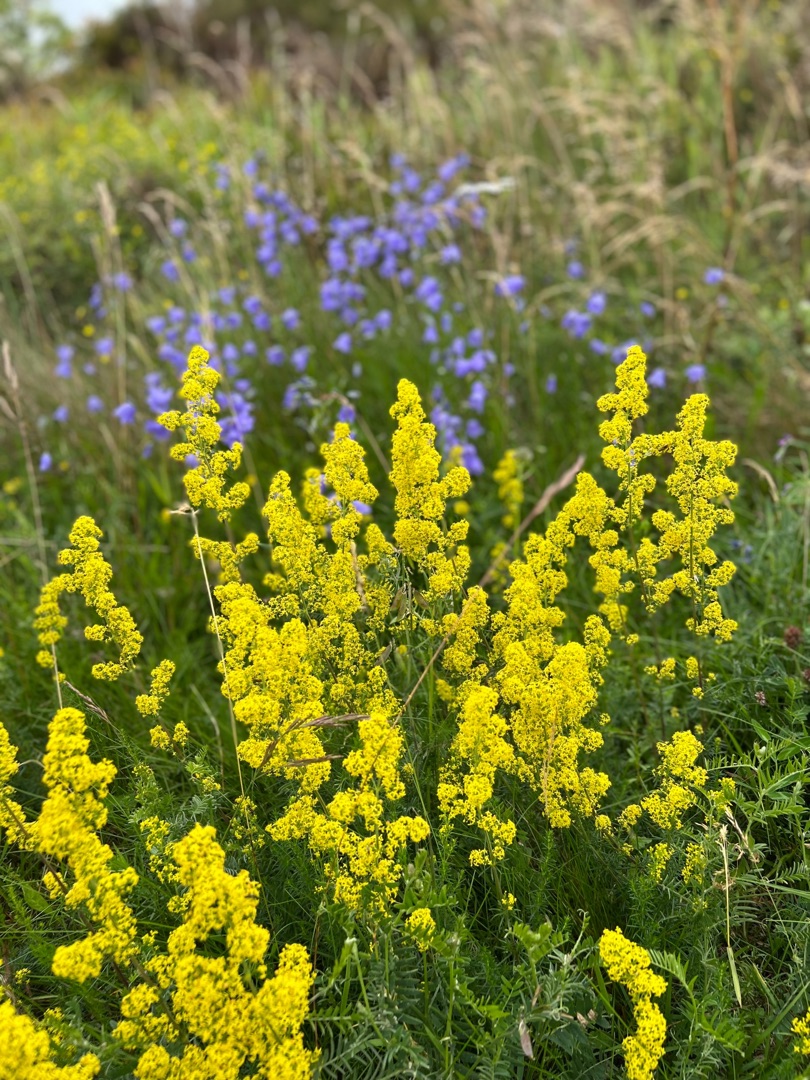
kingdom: Plantae
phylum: Tracheophyta
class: Magnoliopsida
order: Gentianales
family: Rubiaceae
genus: Galium
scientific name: Galium verum
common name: Gul snerre
